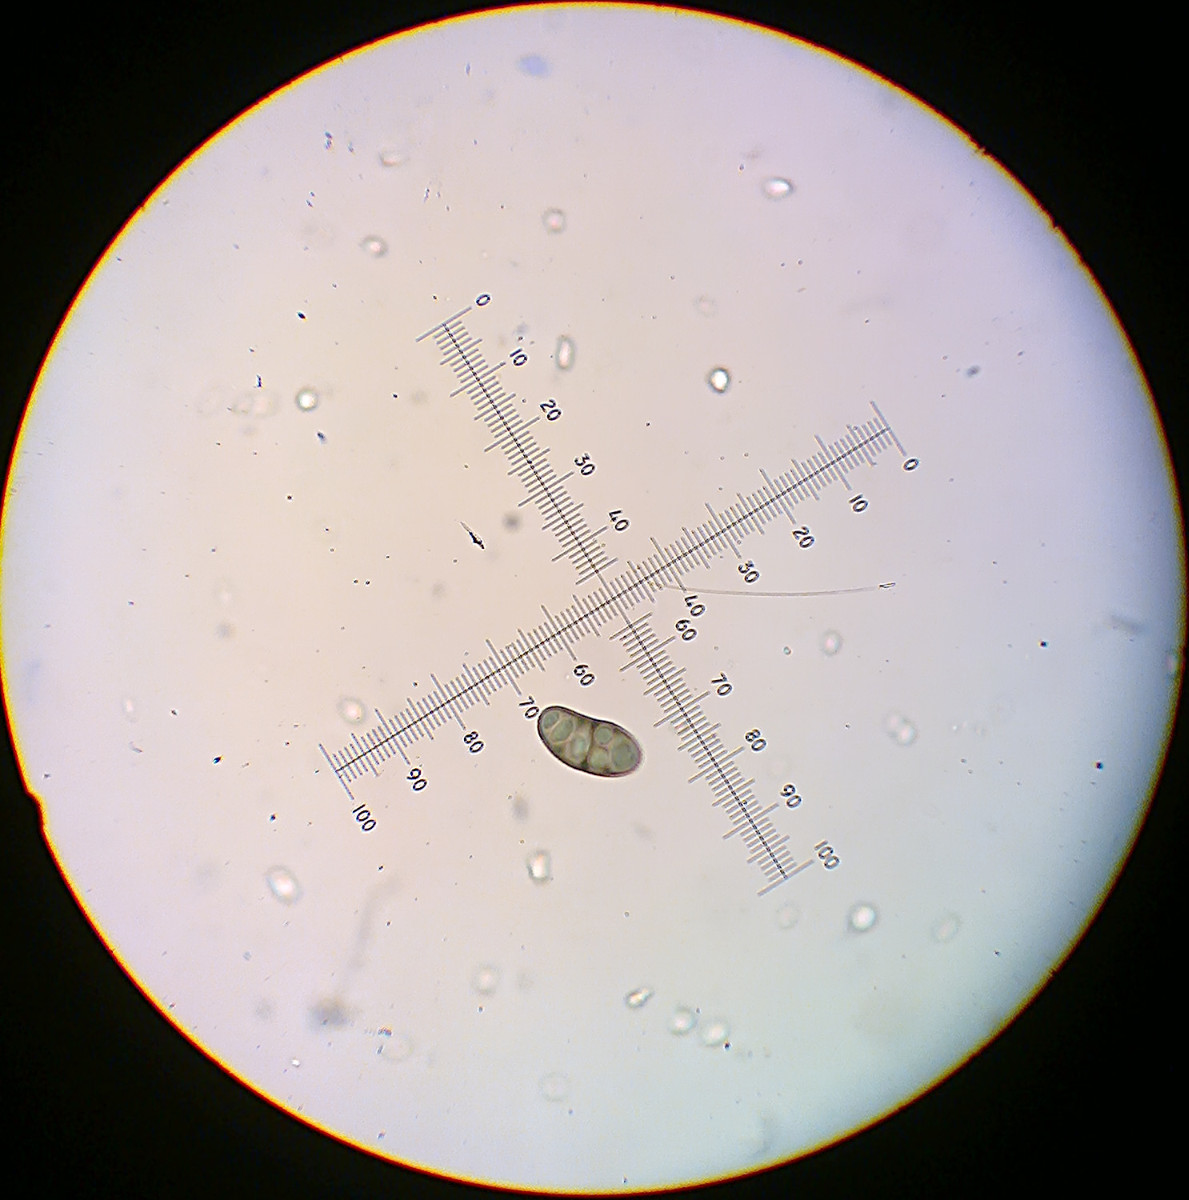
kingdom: Fungi
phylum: Ascomycota
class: Lecanoromycetes
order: Caliciales
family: Caliciaceae
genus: Diplotomma
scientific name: Diplotomma pharcidium
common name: skov-sortskivelav
